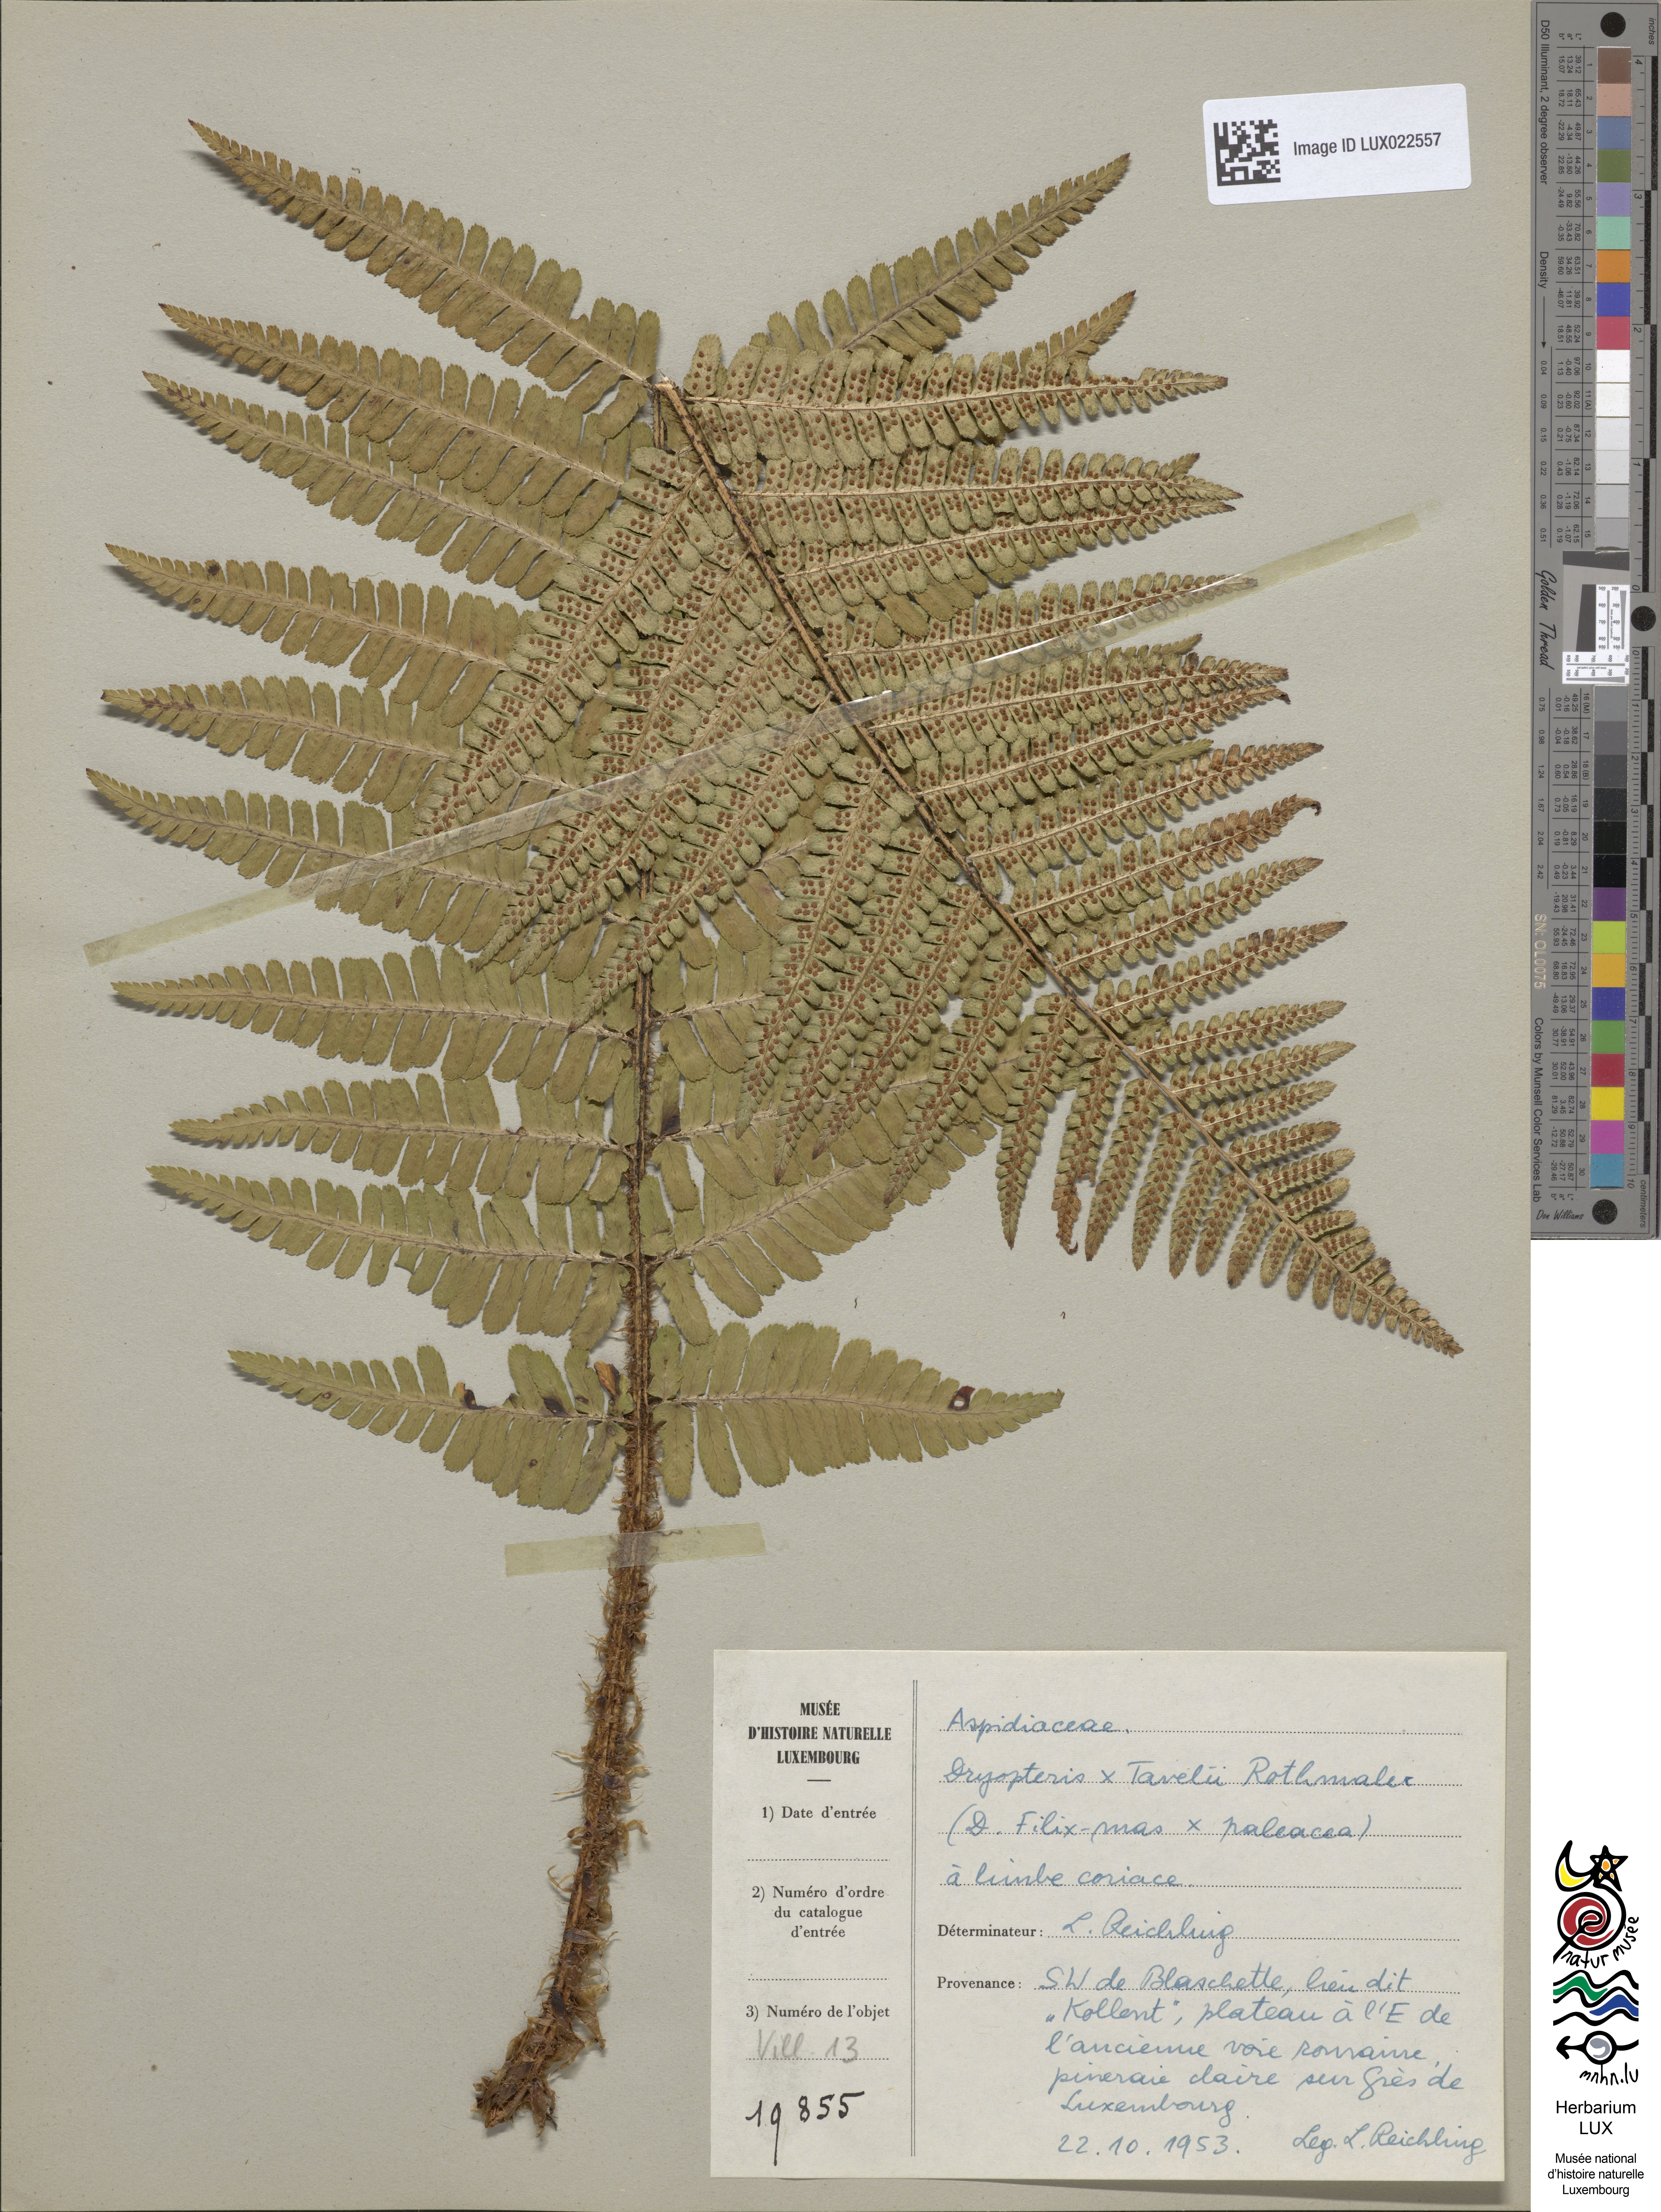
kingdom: Plantae
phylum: Tracheophyta
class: Polypodiopsida
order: Polypodiales
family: Dryopteridaceae
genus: Dryopteris
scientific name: Dryopteris borreri
